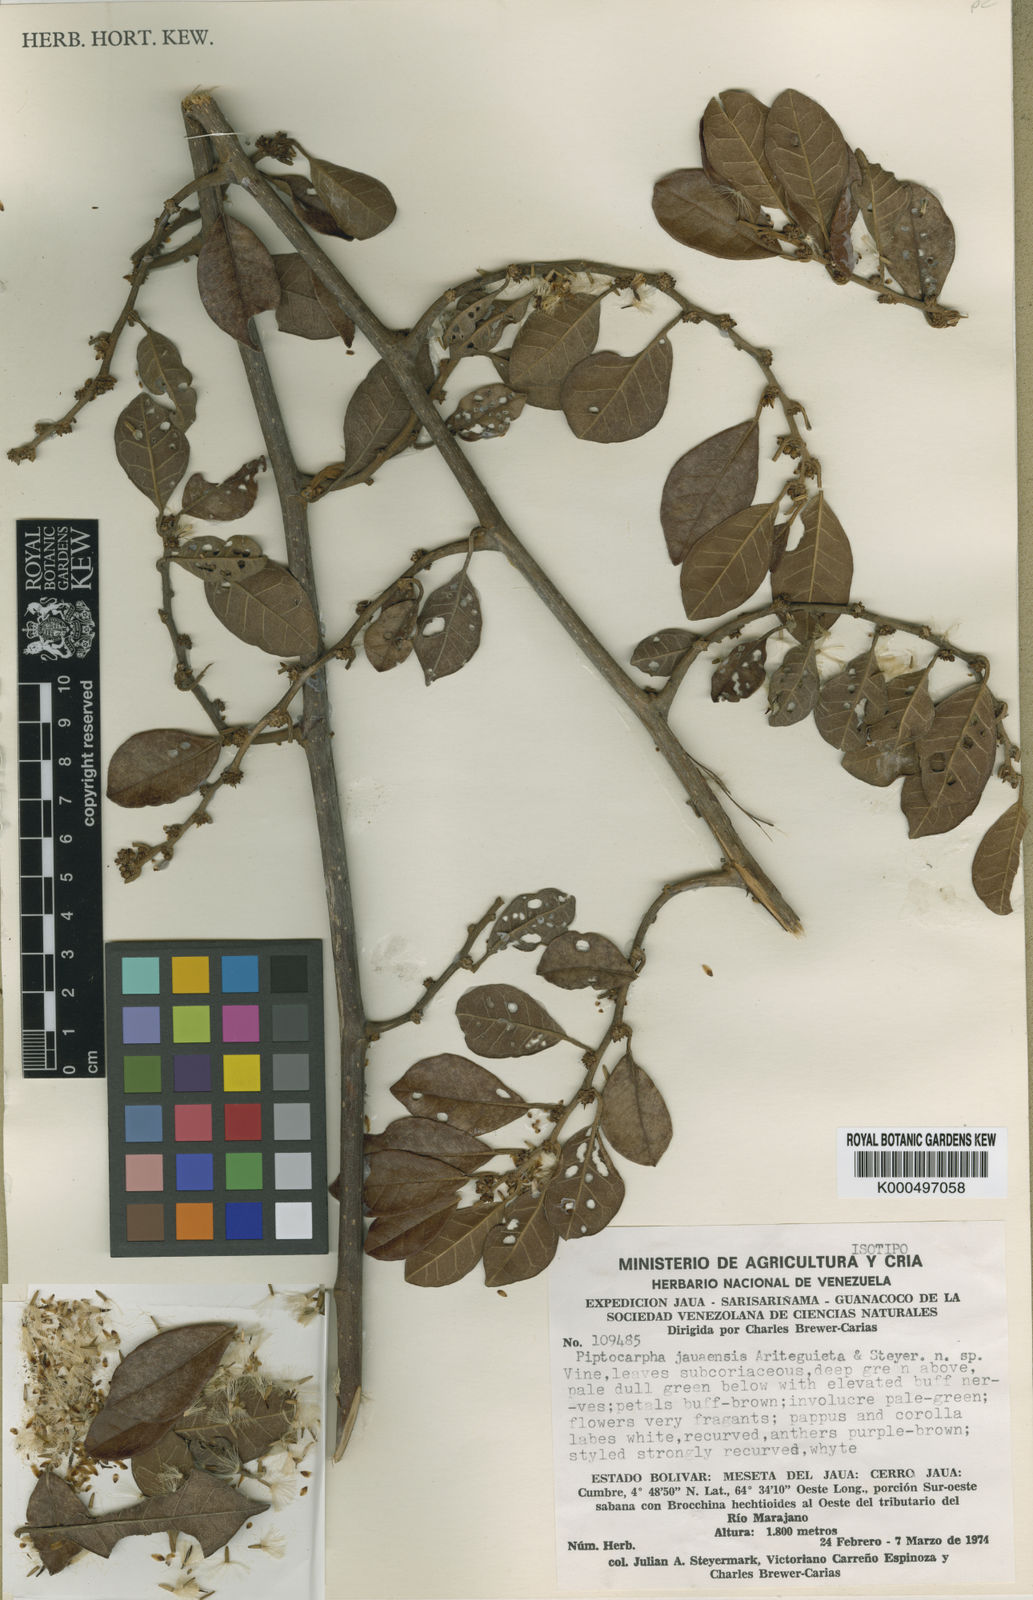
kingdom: Plantae
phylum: Tracheophyta
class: Magnoliopsida
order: Asterales
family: Asteraceae
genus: Piptocarpha
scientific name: Piptocarpha jauaensis
